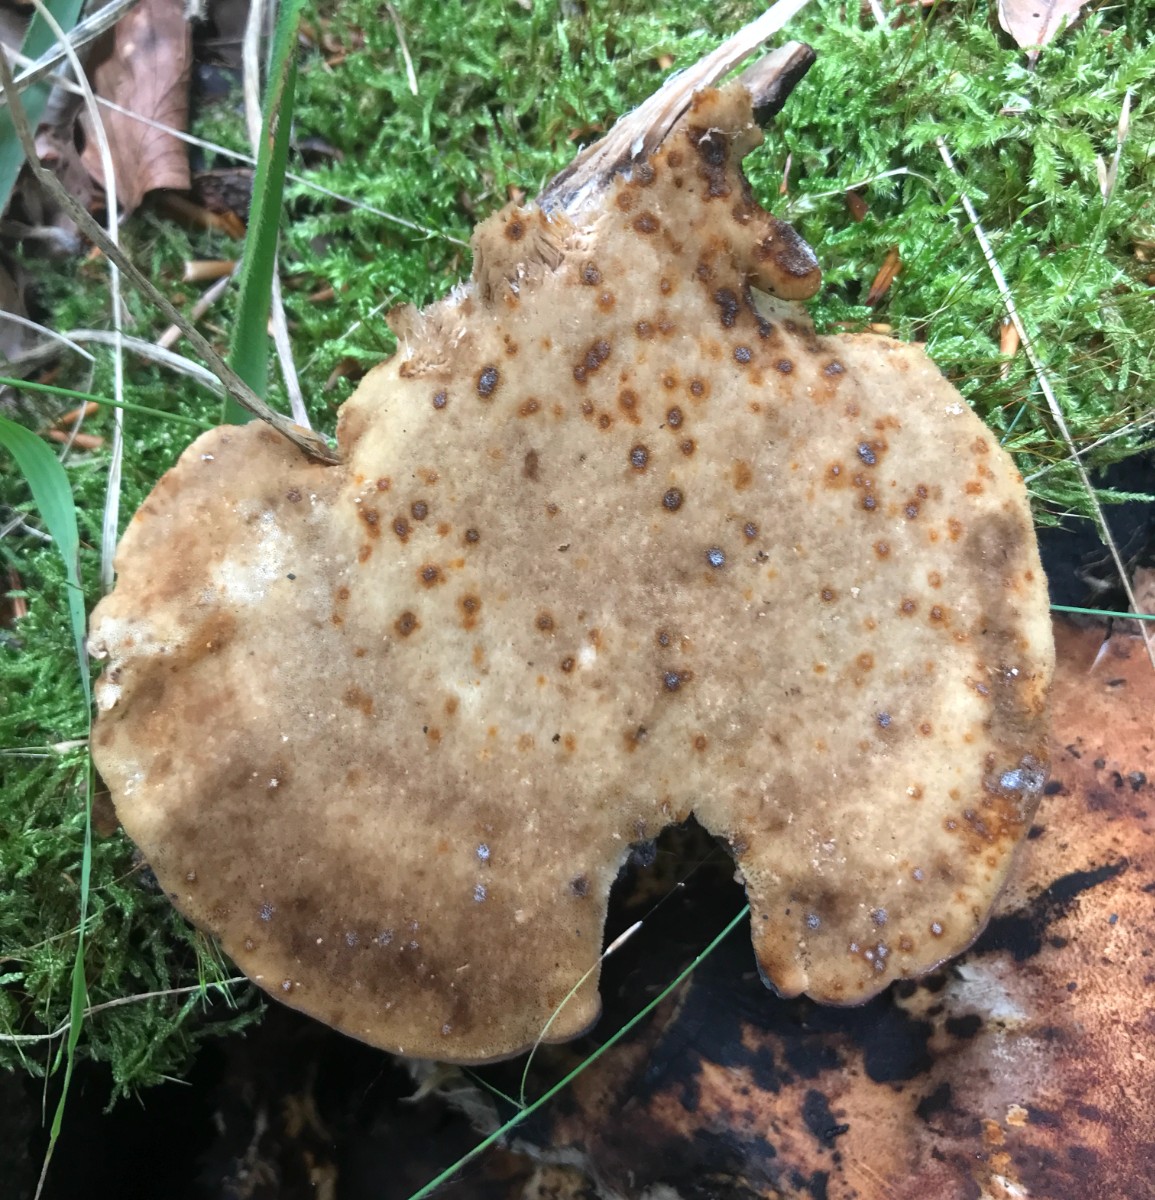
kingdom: Fungi
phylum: Basidiomycota
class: Agaricomycetes
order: Polyporales
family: Meripilaceae
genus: Meripilus
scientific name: Meripilus giganteus
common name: kæmpeporesvamp
